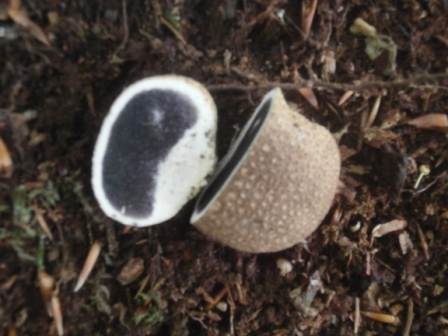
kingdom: Fungi
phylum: Basidiomycota
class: Agaricomycetes
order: Boletales
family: Sclerodermataceae
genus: Scleroderma
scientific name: Scleroderma citrinum
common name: almindelig bruskbold
